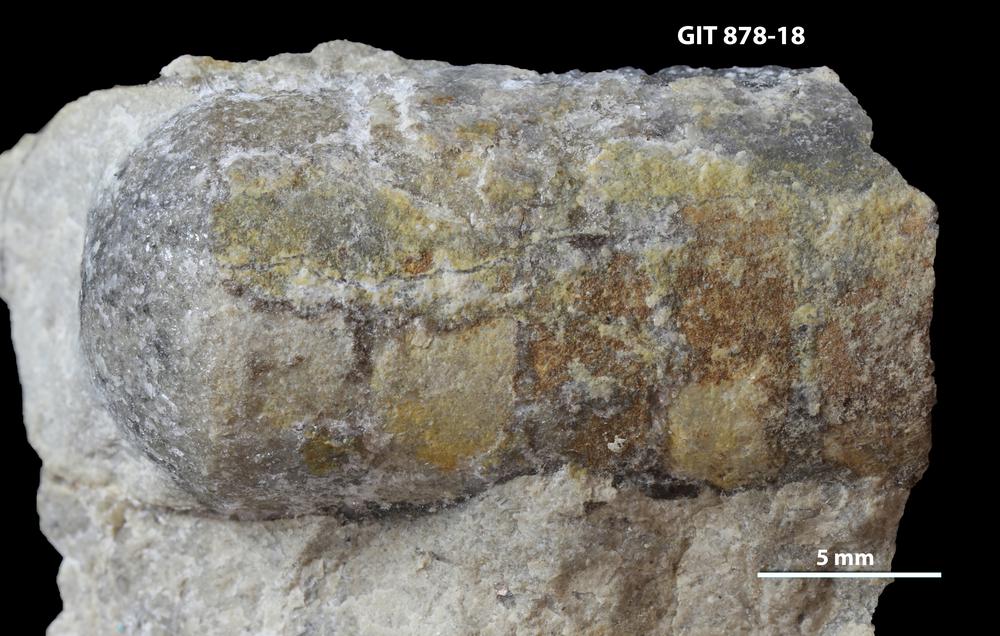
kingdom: Animalia
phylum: Mollusca
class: Cephalopoda
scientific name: Cephalopoda
